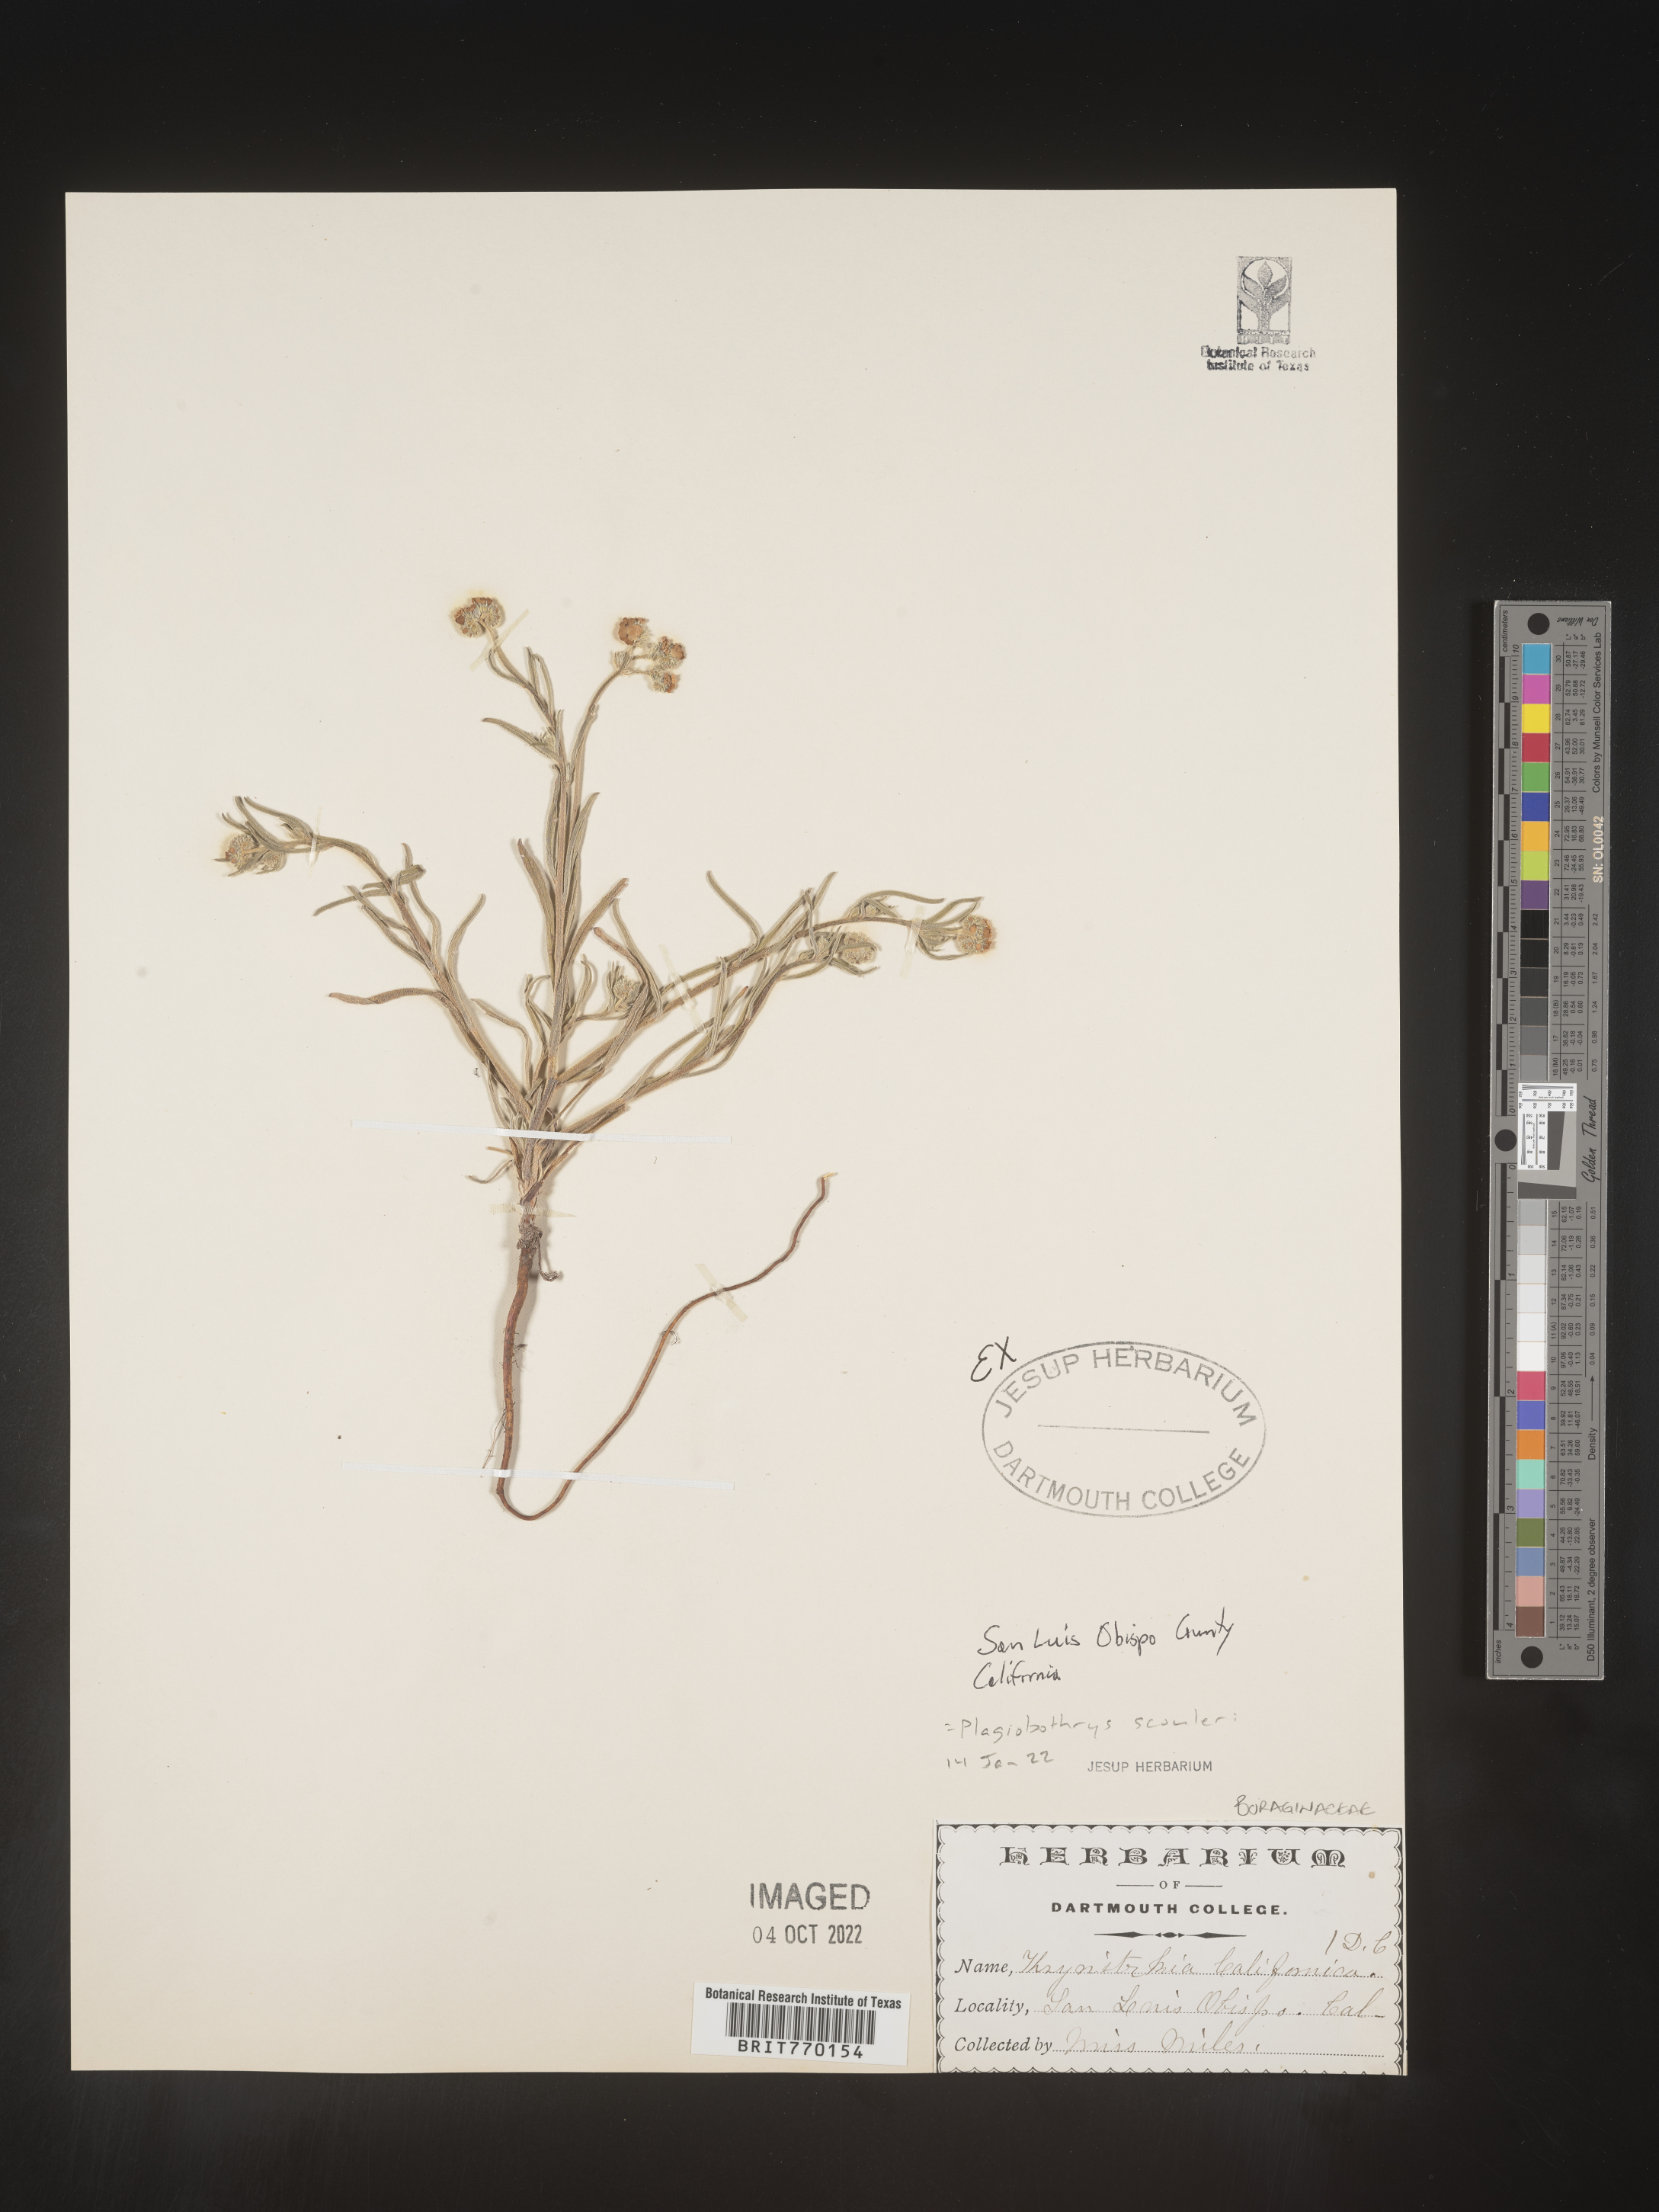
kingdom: Plantae
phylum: Tracheophyta
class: Magnoliopsida
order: Boraginales
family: Boraginaceae
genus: Plagiobothrys
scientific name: Plagiobothrys
